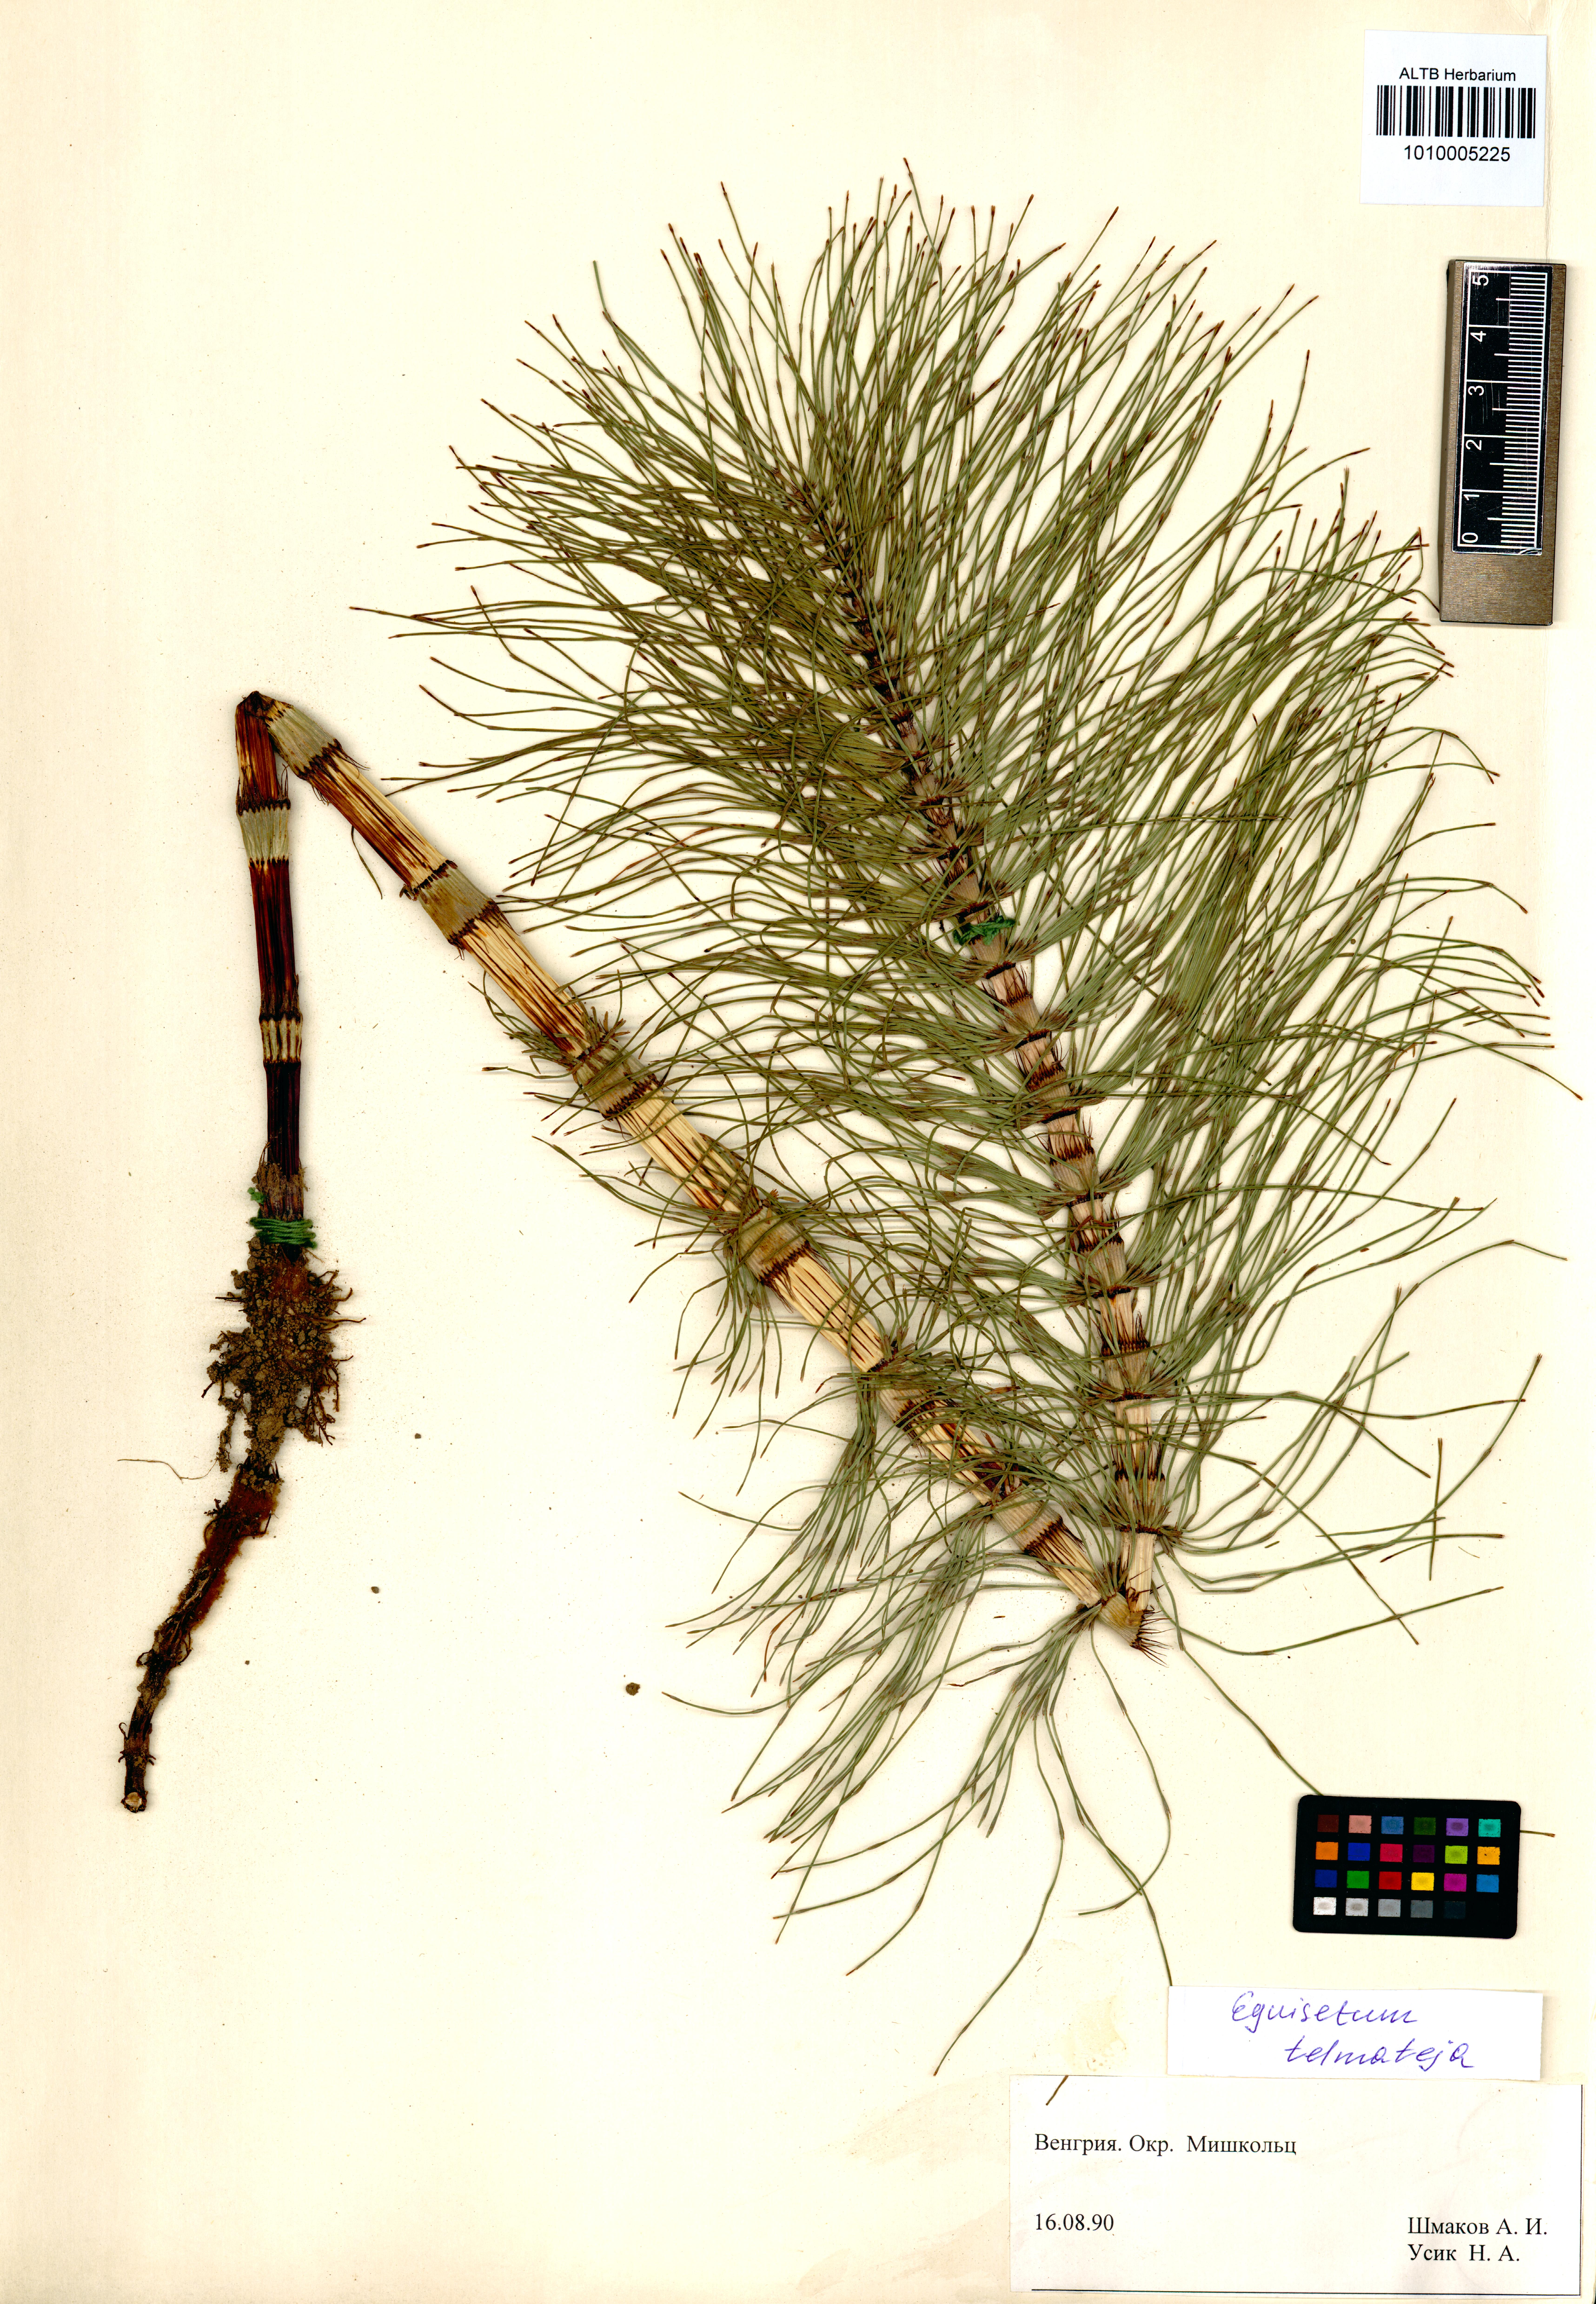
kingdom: Plantae
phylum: Tracheophyta
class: Polypodiopsida
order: Equisetales
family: Equisetaceae
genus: Equisetum
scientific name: Equisetum telmateia
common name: Great horsetail
